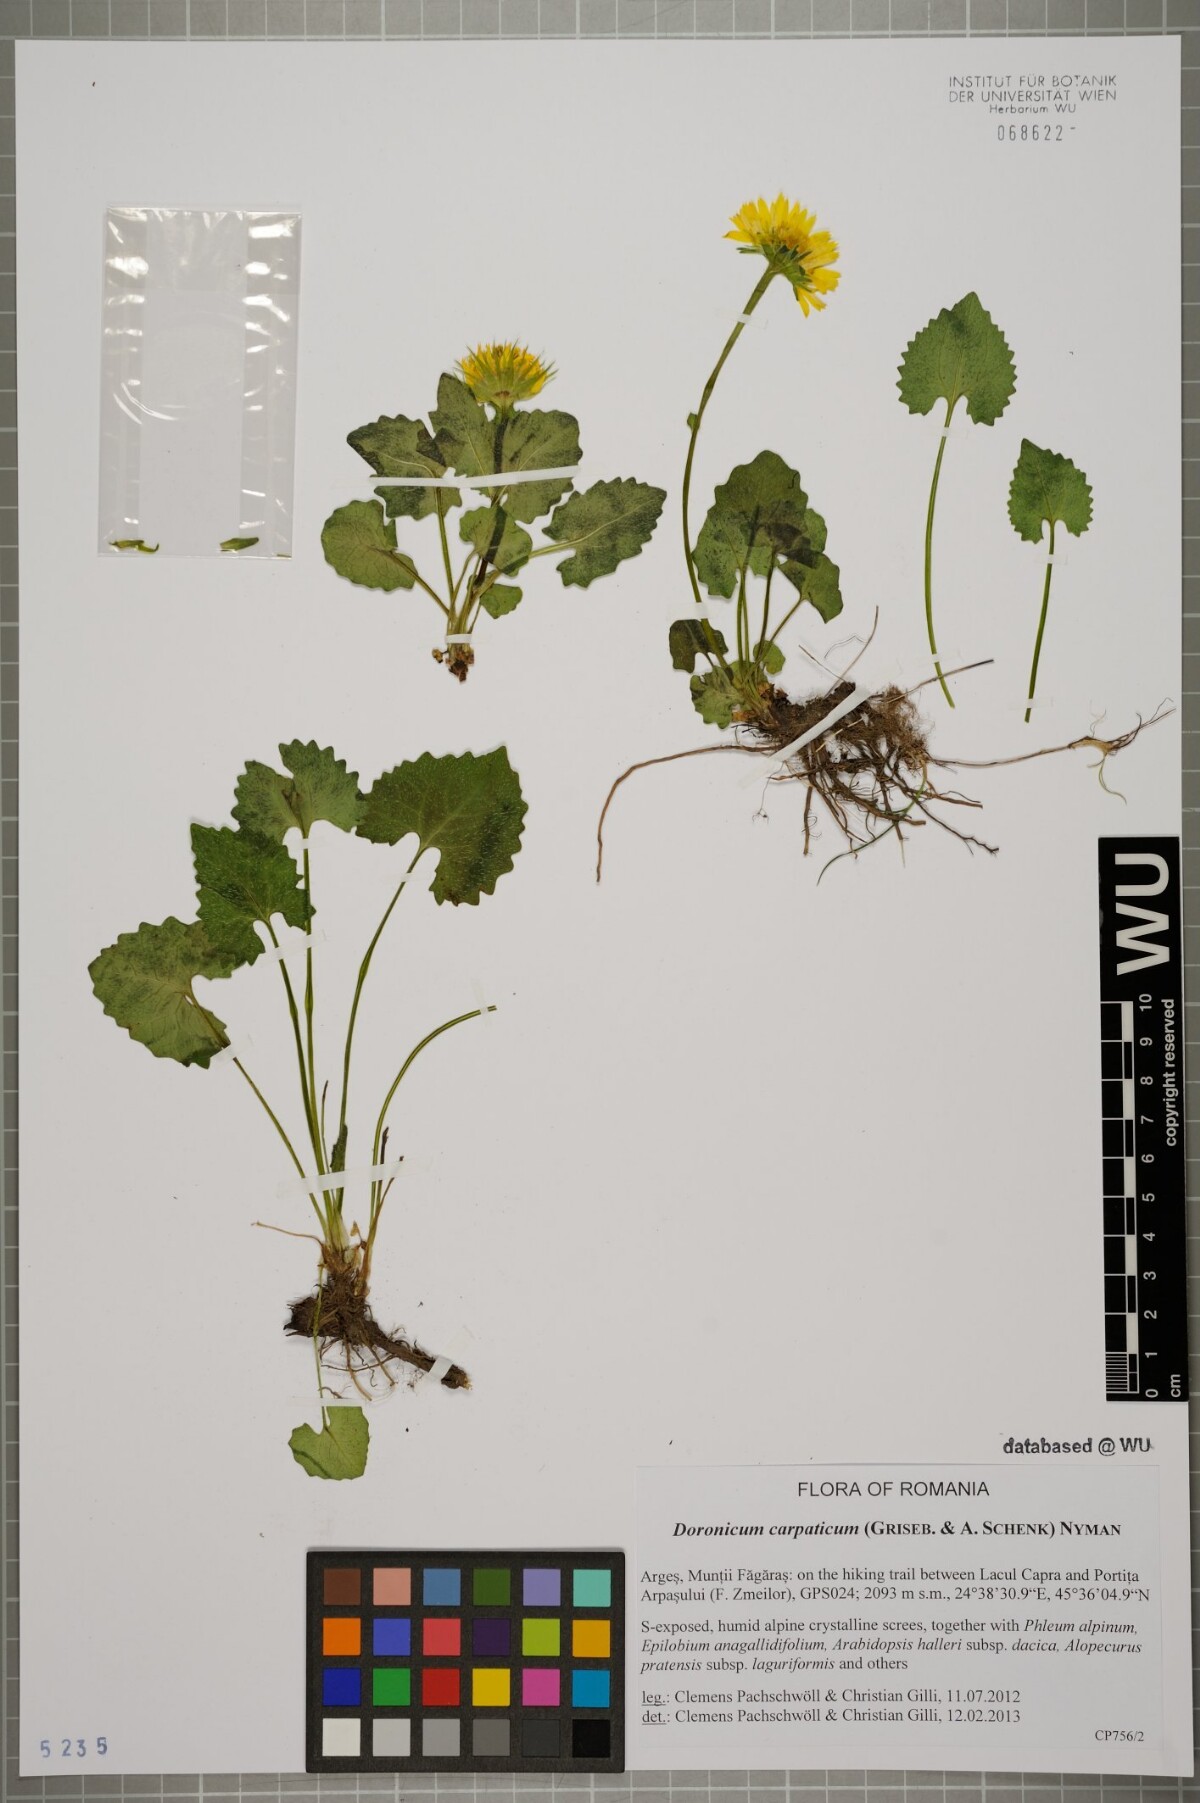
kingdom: Plantae
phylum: Tracheophyta
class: Magnoliopsida
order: Asterales
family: Asteraceae
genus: Doronicum
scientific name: Doronicum carpaticum
